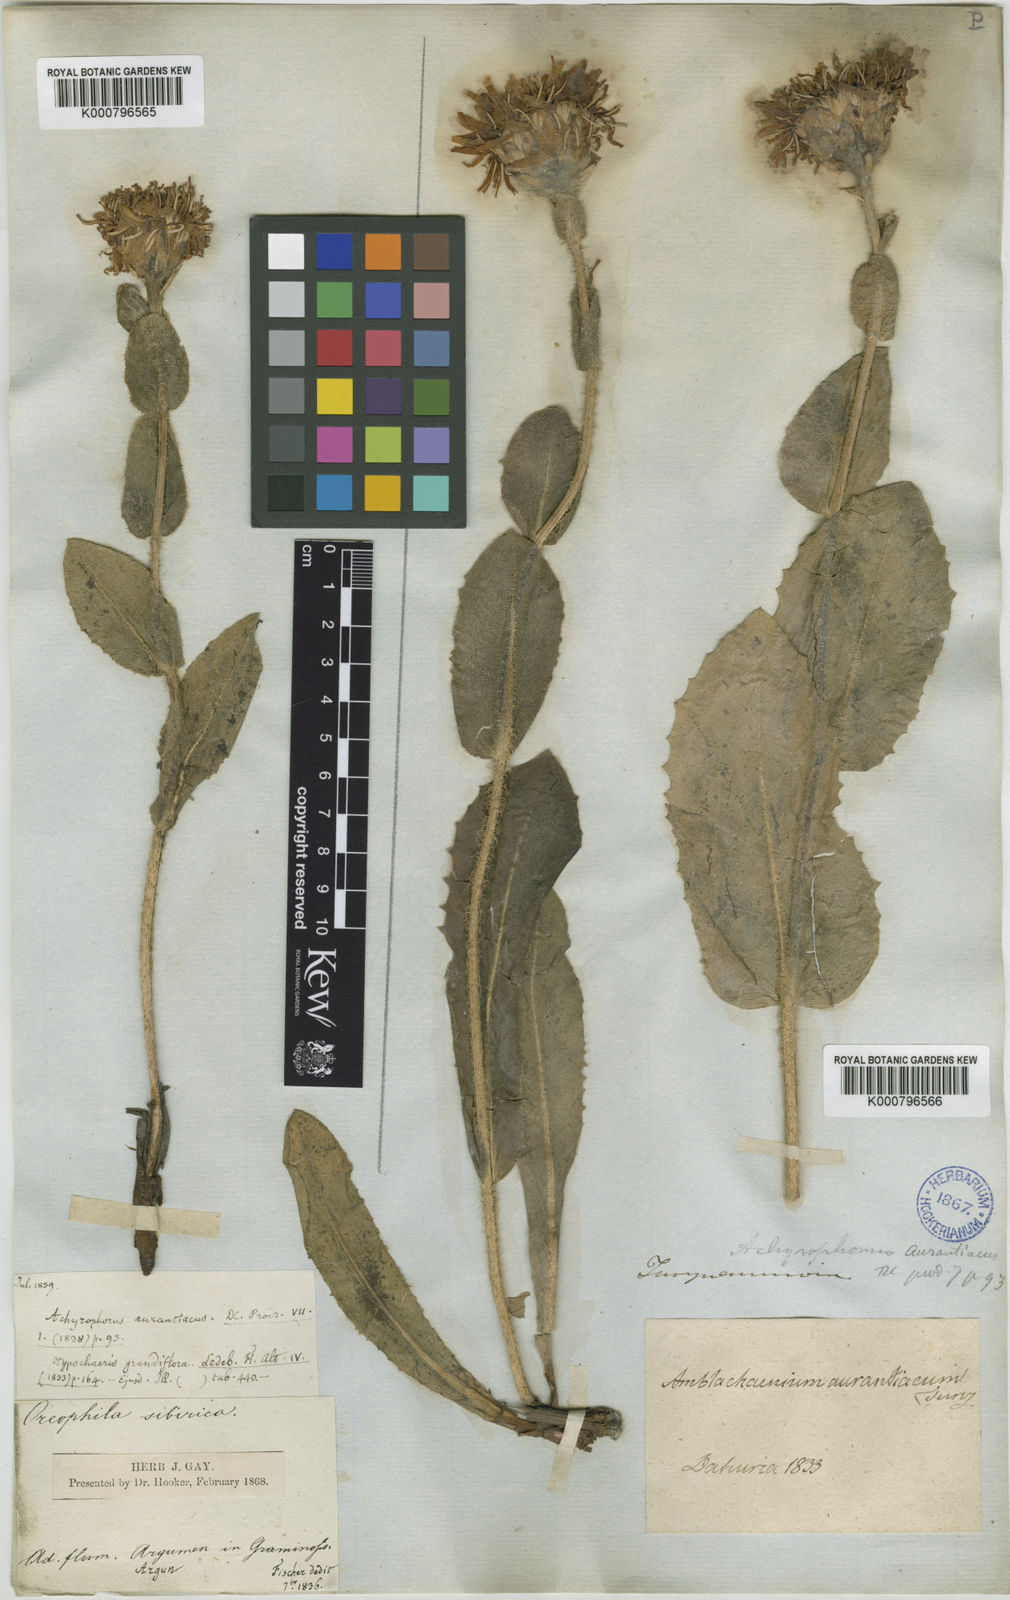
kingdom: Plantae
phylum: Tracheophyta
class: Magnoliopsida
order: Asterales
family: Asteraceae
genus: Trommsdorffia
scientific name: Trommsdorffia ciliata
